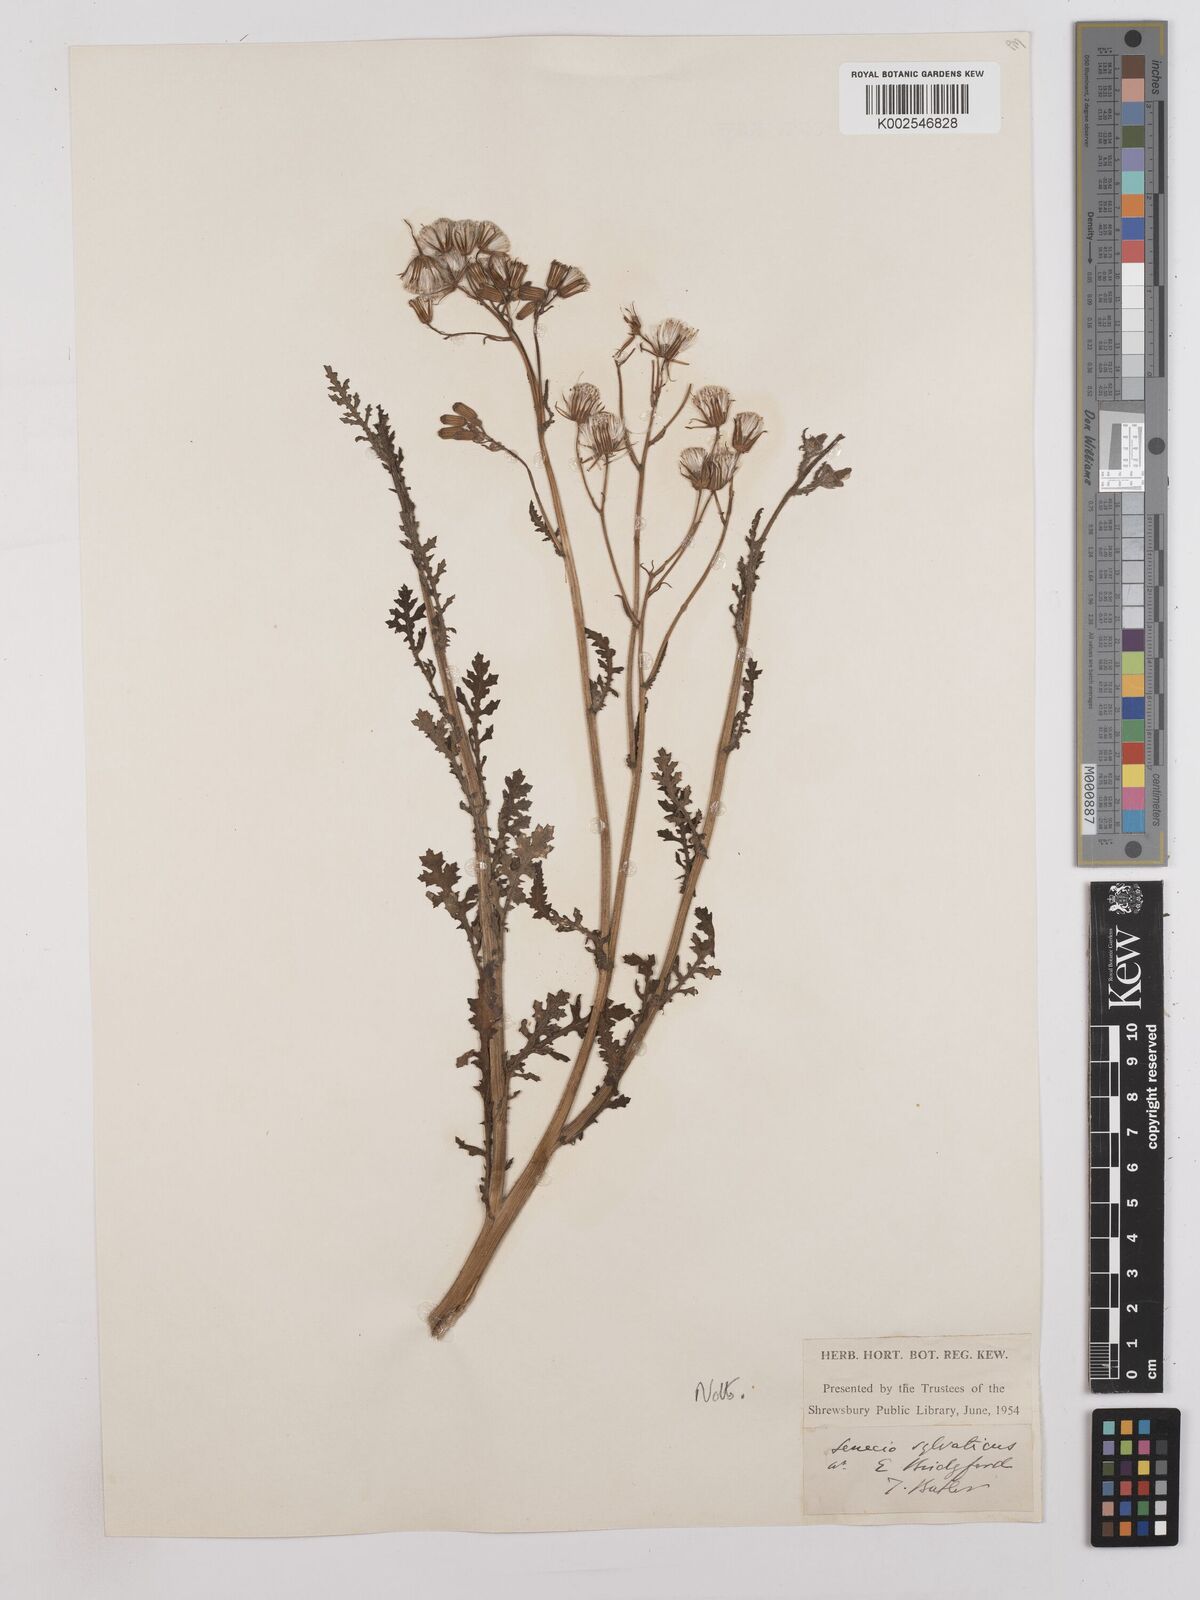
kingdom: Plantae
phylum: Tracheophyta
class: Magnoliopsida
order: Asterales
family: Asteraceae
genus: Senecio
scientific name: Senecio sylvaticus
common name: Woodland ragwort
